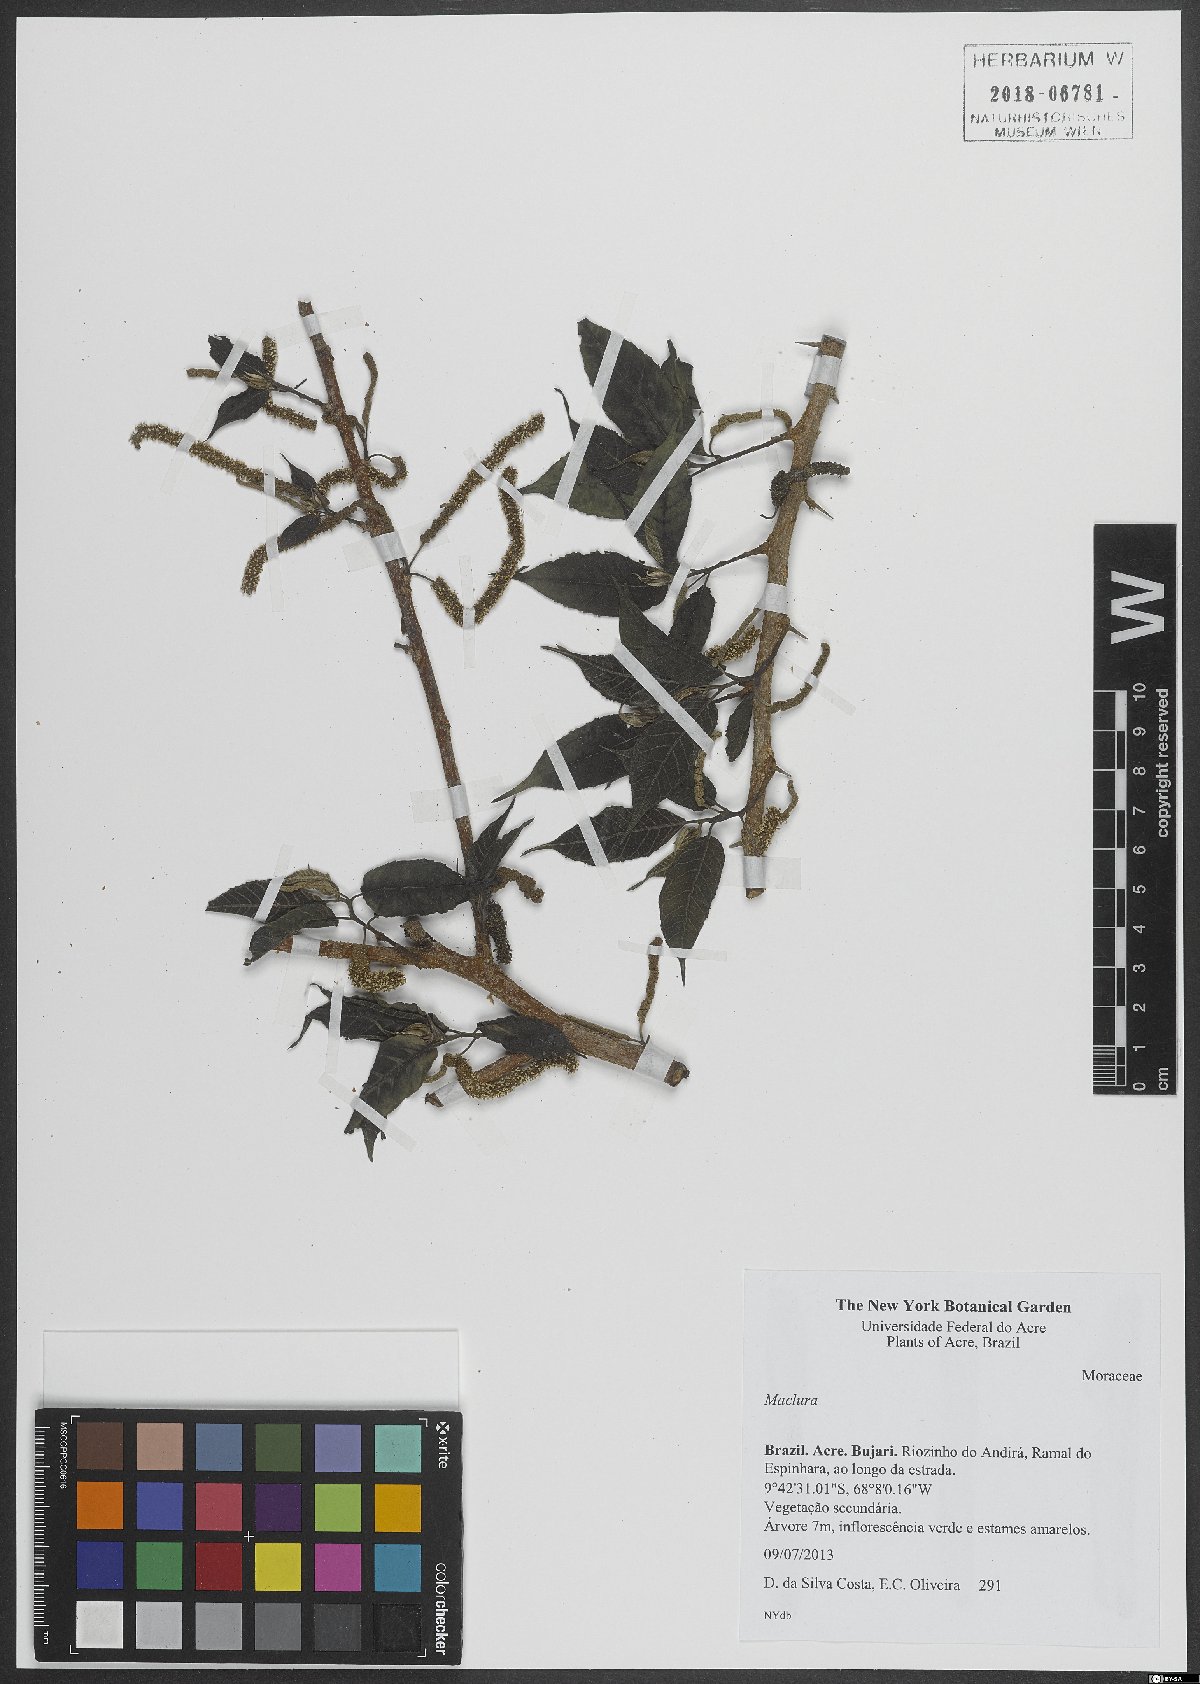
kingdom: Plantae
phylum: Tracheophyta
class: Magnoliopsida
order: Rosales
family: Moraceae
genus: Maclura
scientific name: Maclura
